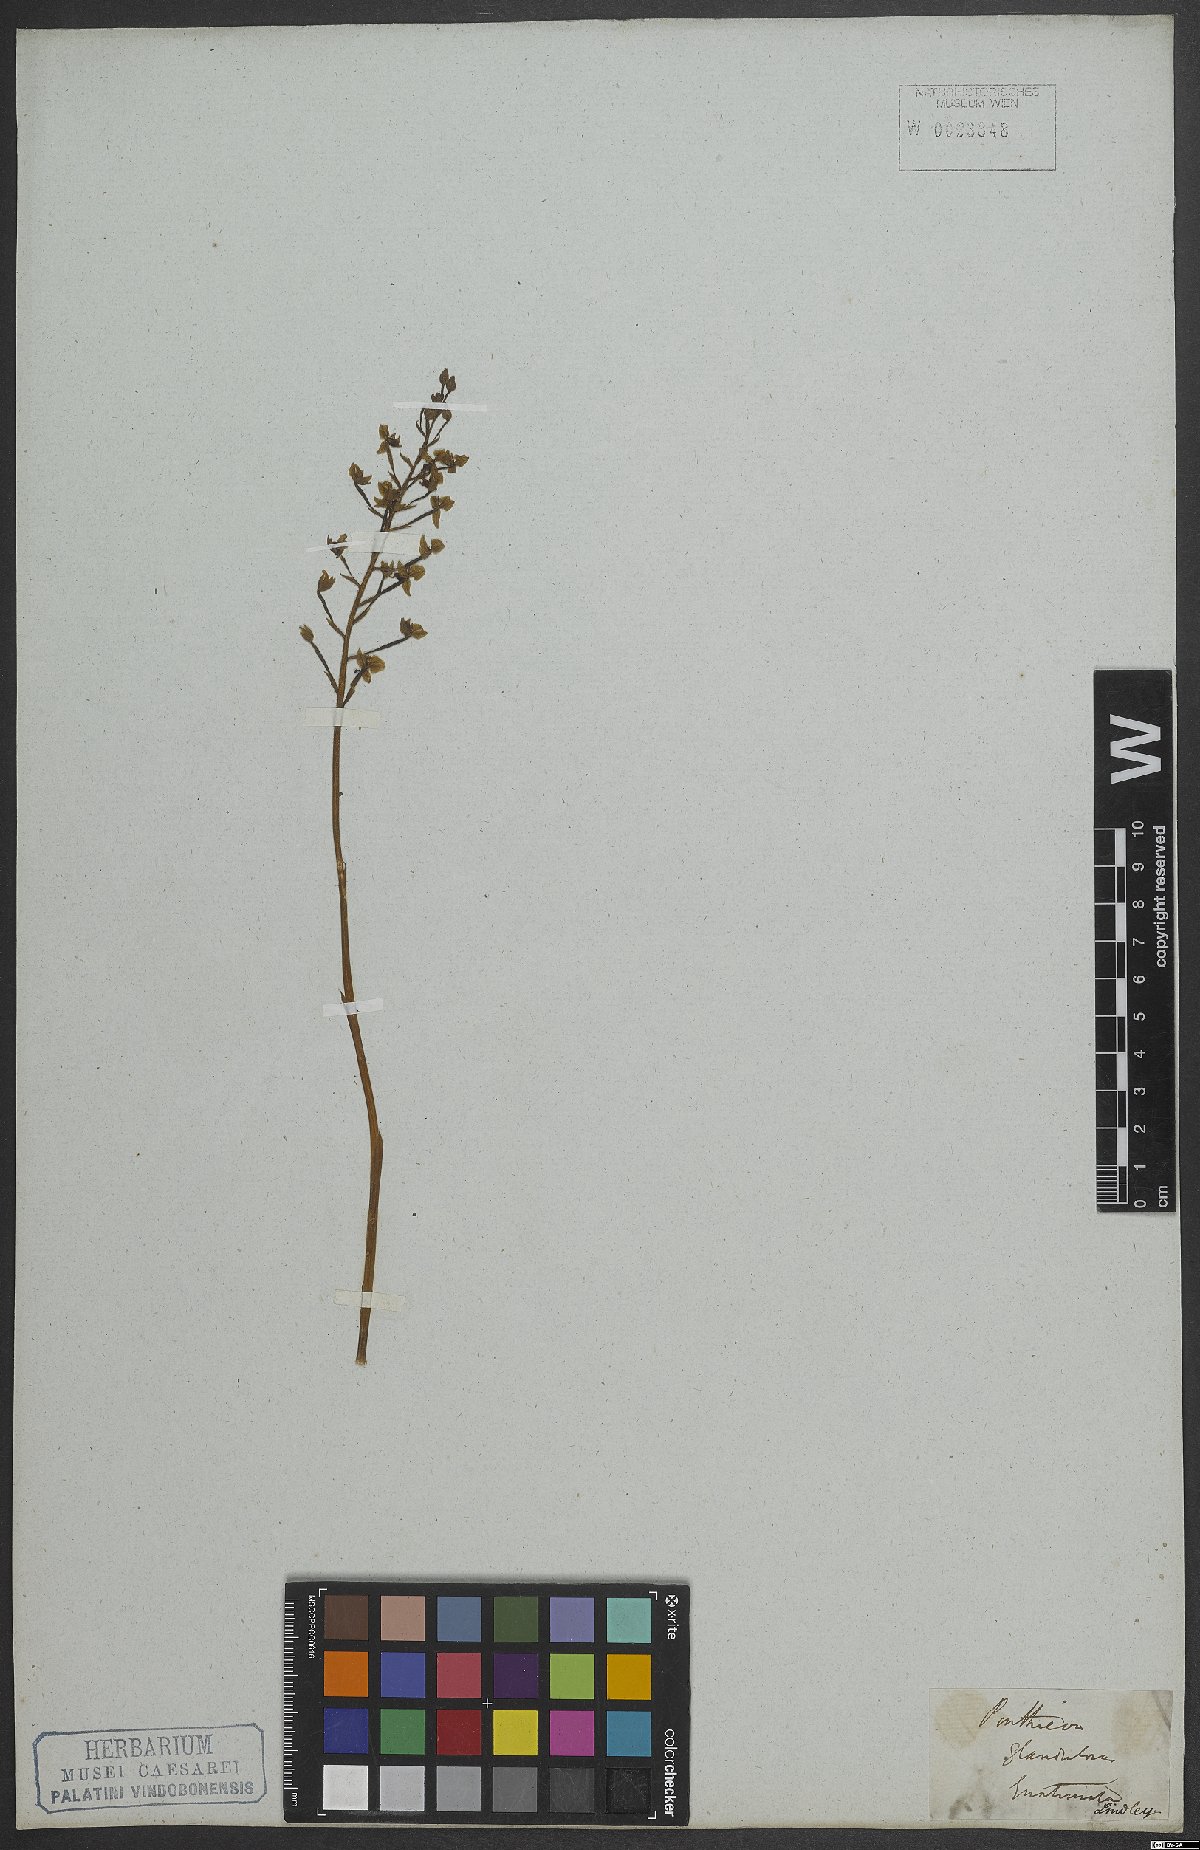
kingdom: Plantae
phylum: Tracheophyta
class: Liliopsida
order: Asparagales
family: Orchidaceae
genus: Ponthieva
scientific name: Ponthieva glandulosa
